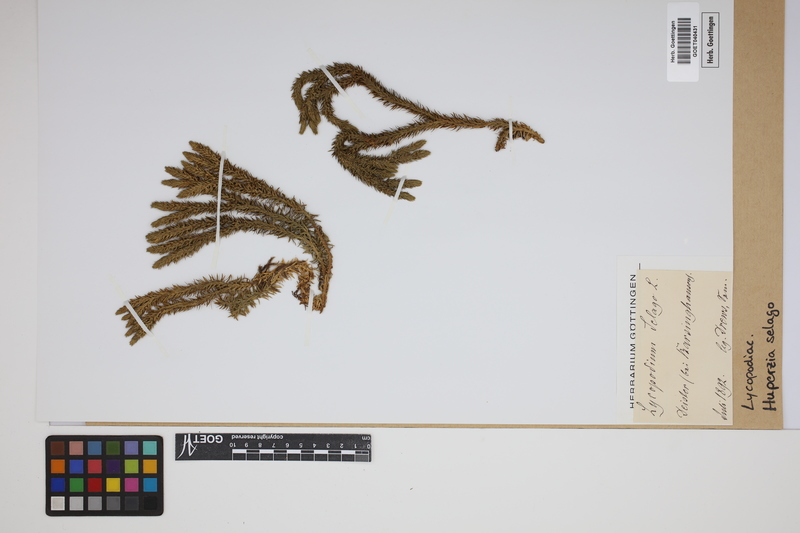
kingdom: Plantae
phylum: Tracheophyta
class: Lycopodiopsida
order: Lycopodiales
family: Lycopodiaceae
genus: Huperzia
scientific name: Huperzia selago
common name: Northern firmoss
